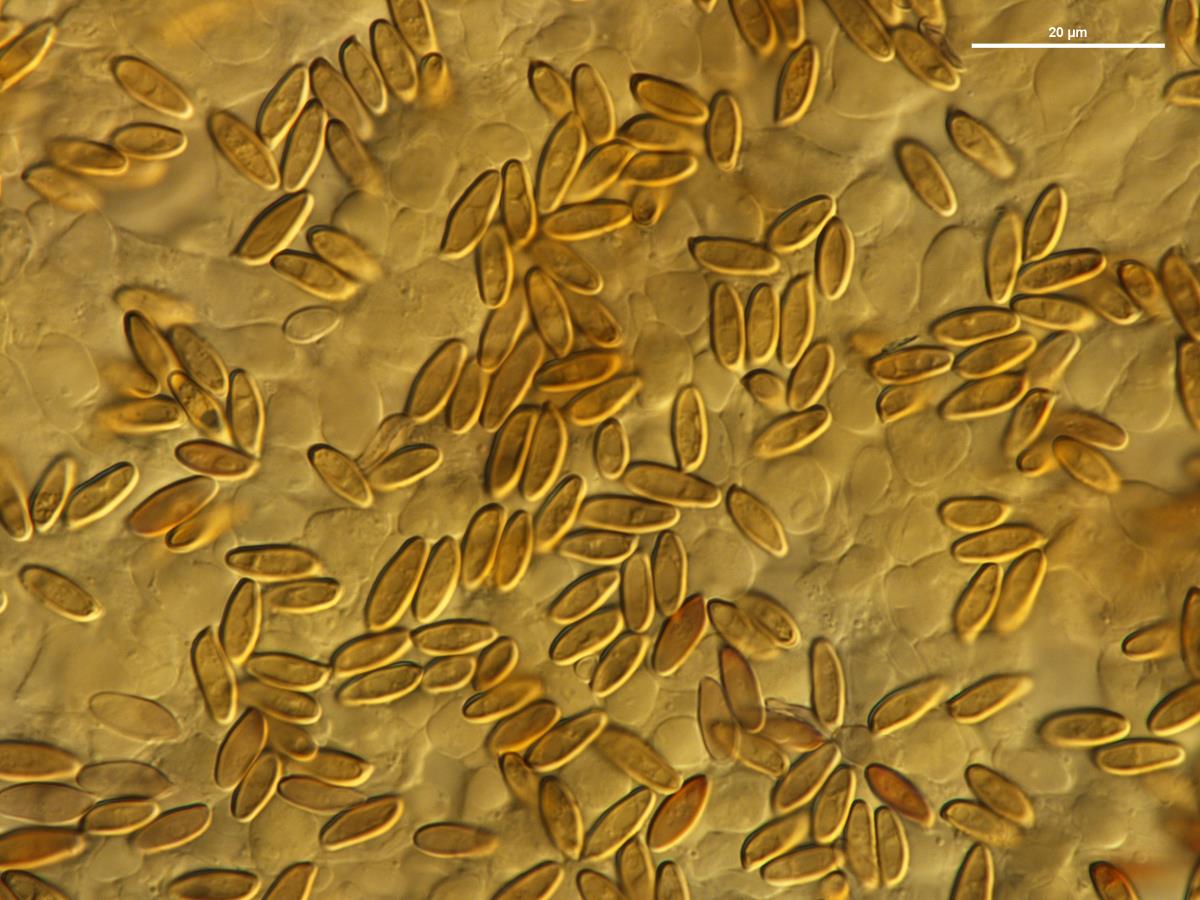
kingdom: Fungi
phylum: Basidiomycota
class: Agaricomycetes
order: Boletales
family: Boletaceae
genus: Chalciporus
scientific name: Chalciporus piperatus
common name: Peppery bolete
